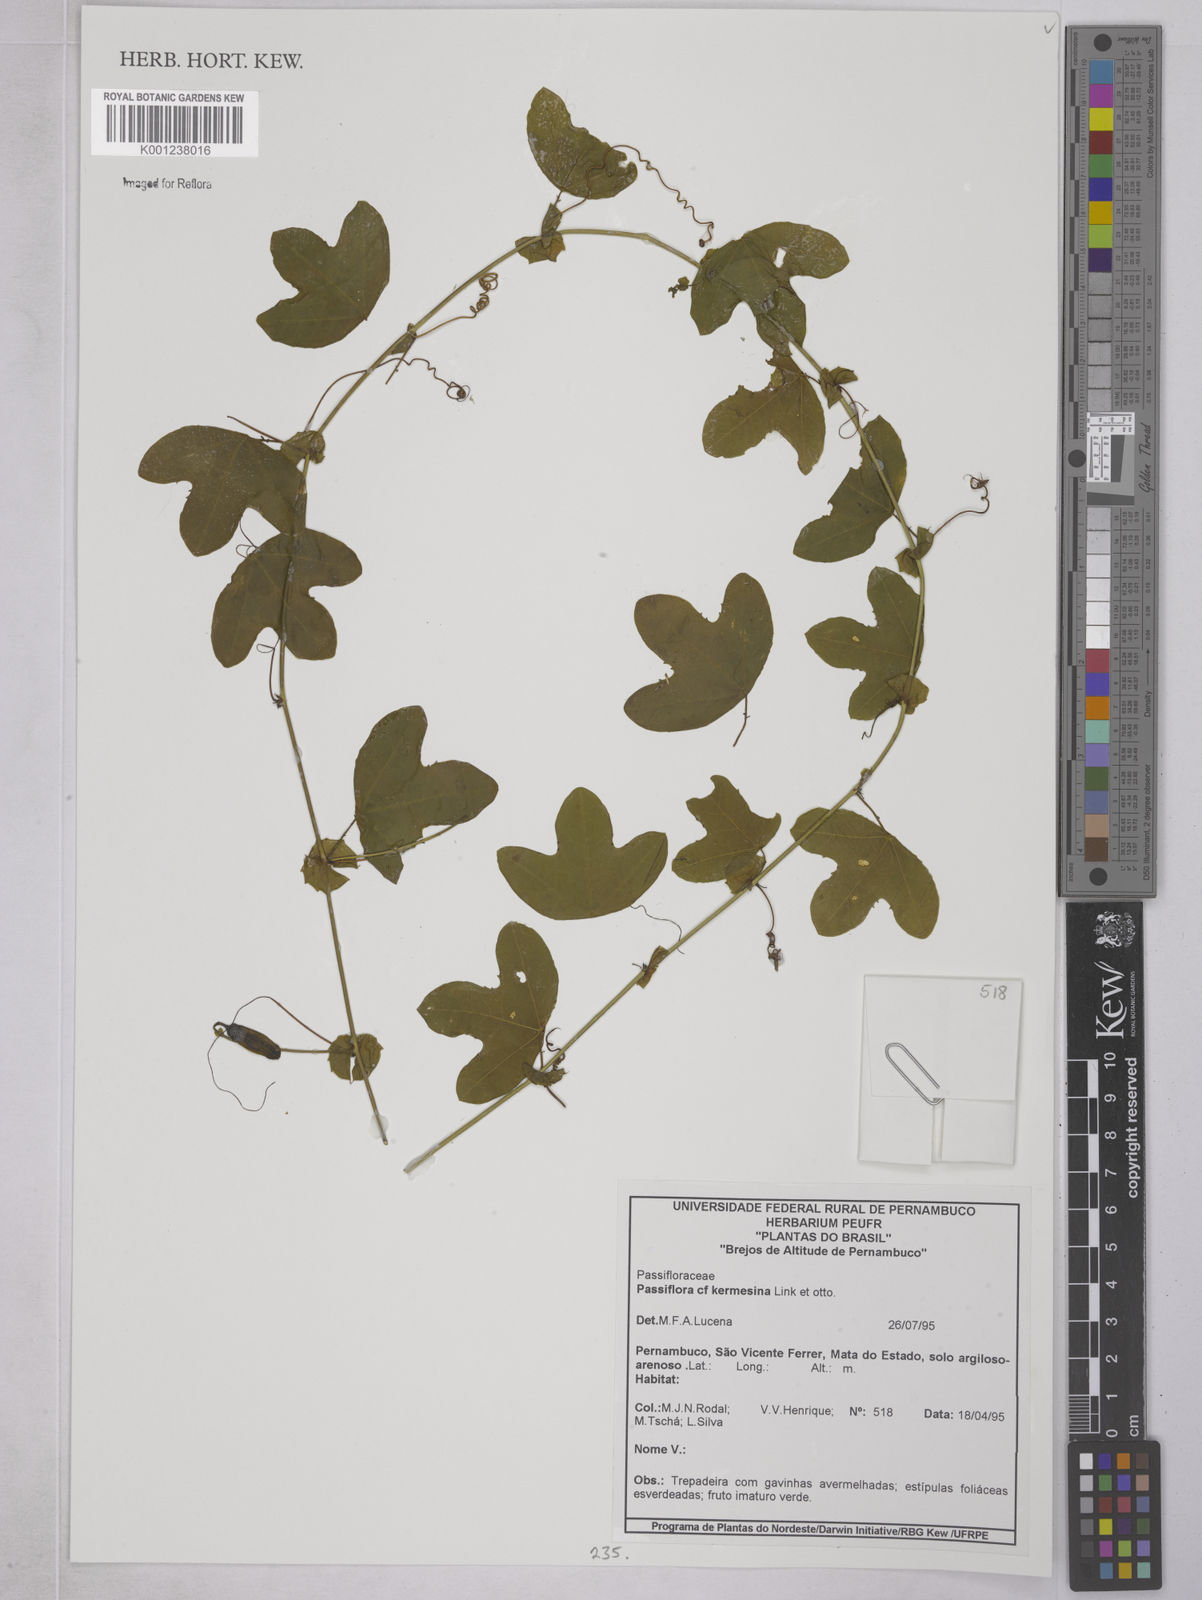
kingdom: Plantae
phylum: Tracheophyta
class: Magnoliopsida
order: Malpighiales
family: Passifloraceae
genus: Passiflora
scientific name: Passiflora kermesina
